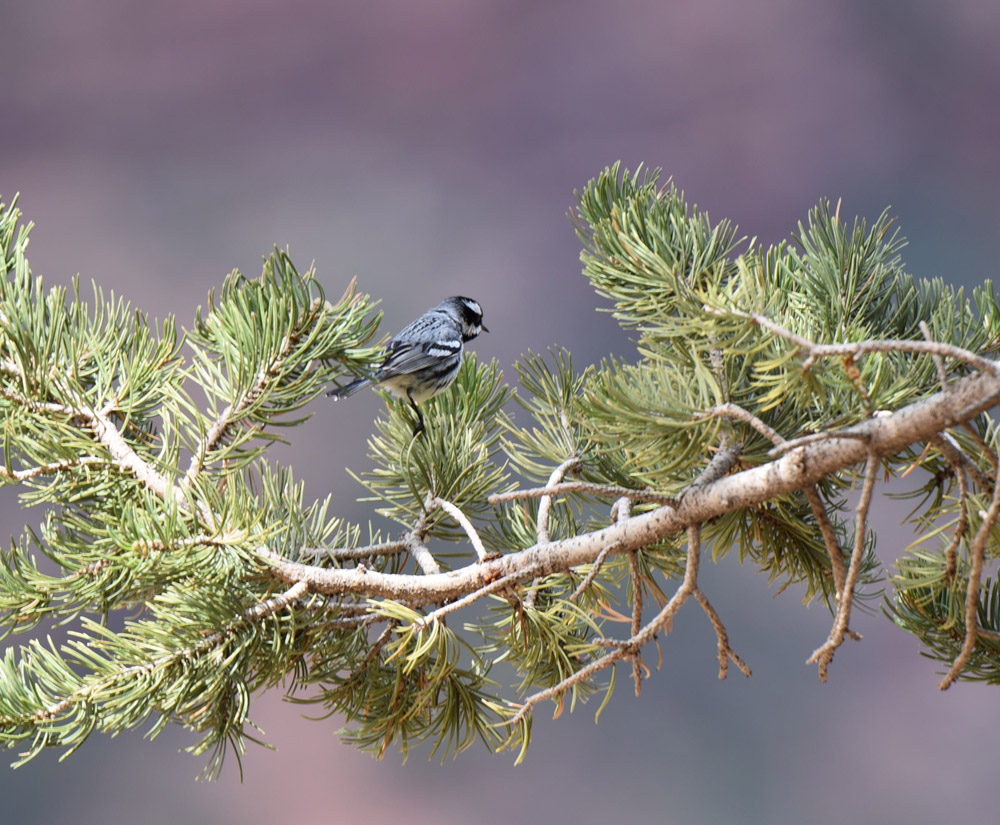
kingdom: Animalia
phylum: Chordata
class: Aves
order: Passeriformes
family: Parulidae
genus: Setophaga
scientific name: Setophaga nigrescens
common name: Black-throated gray warbler
